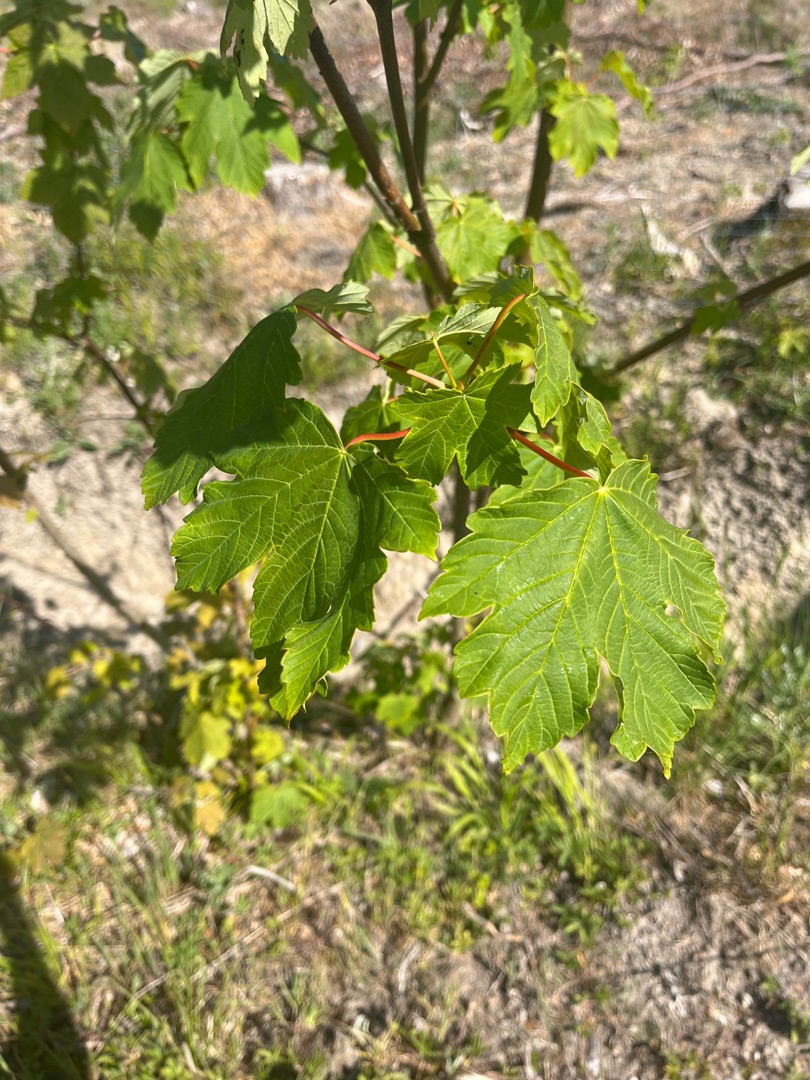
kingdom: Plantae
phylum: Tracheophyta
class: Magnoliopsida
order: Sapindales
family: Sapindaceae
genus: Acer
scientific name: Acer pseudoplatanus
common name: Ahorn
